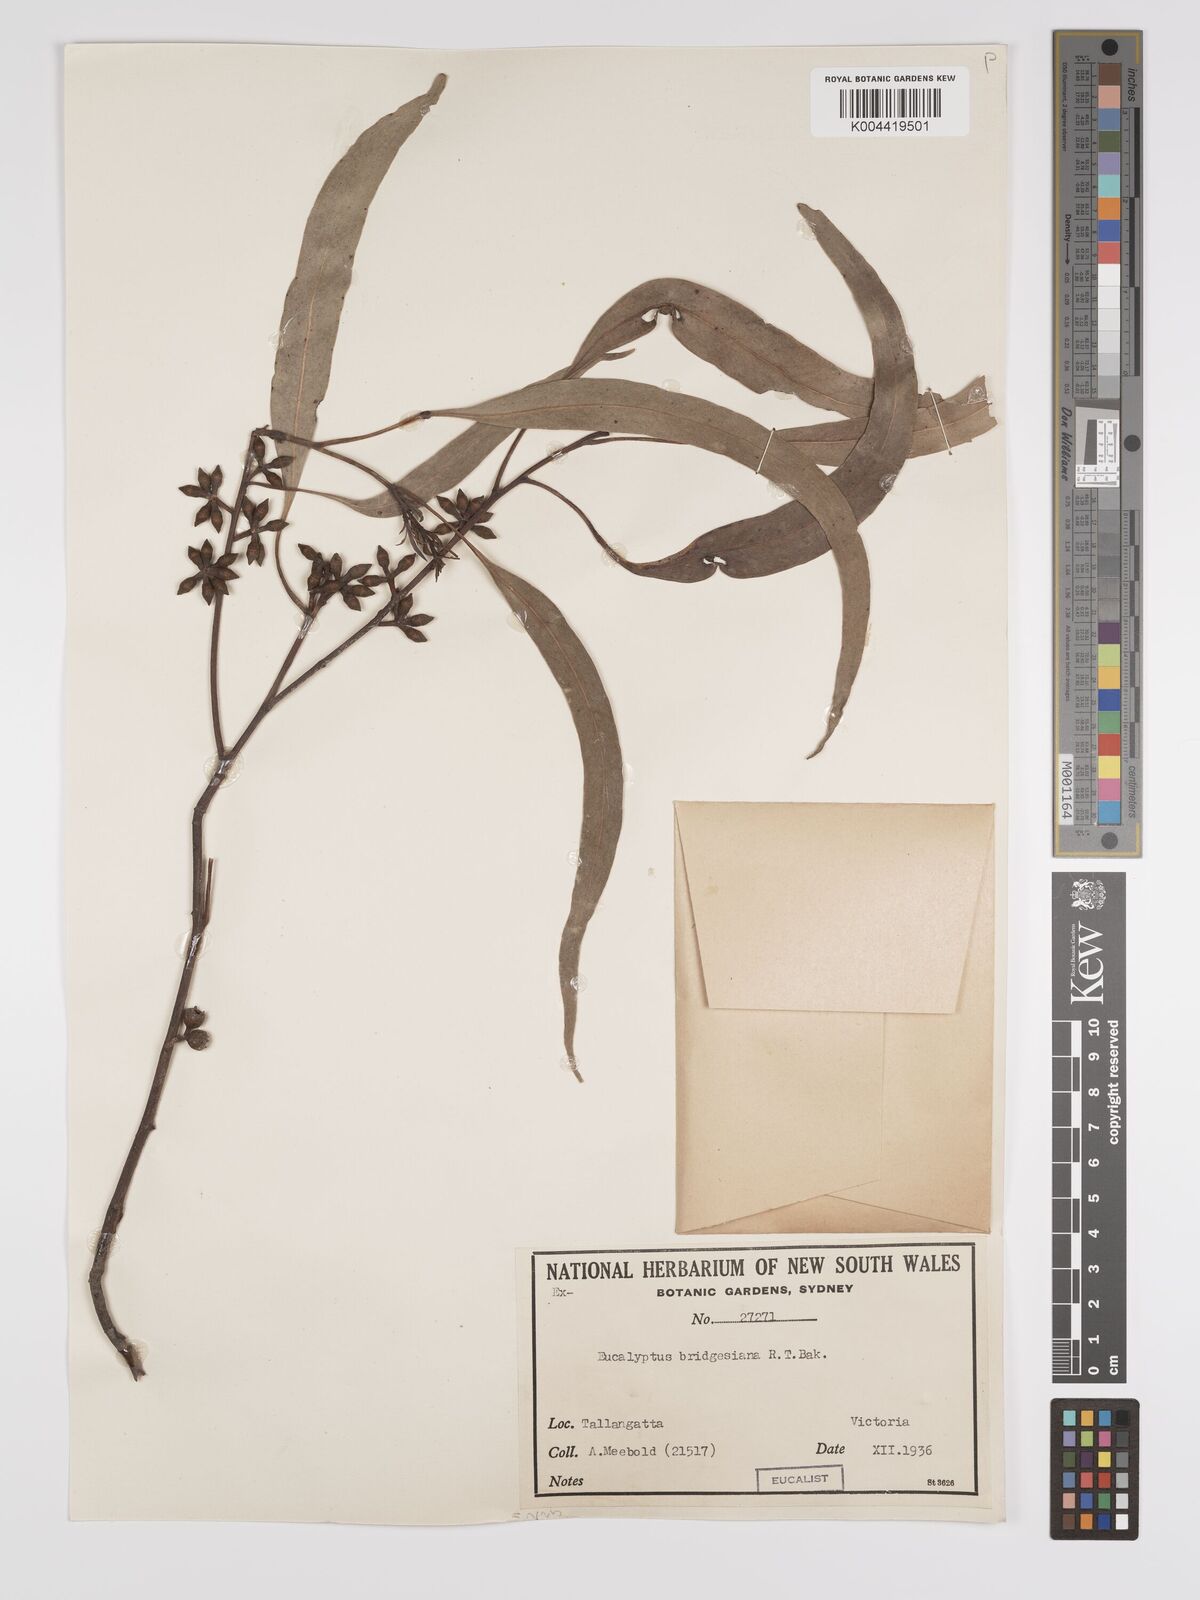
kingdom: Plantae
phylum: Tracheophyta
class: Magnoliopsida
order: Myrtales
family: Myrtaceae
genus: Eucalyptus
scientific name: Eucalyptus bridgesiana
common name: Applebox
